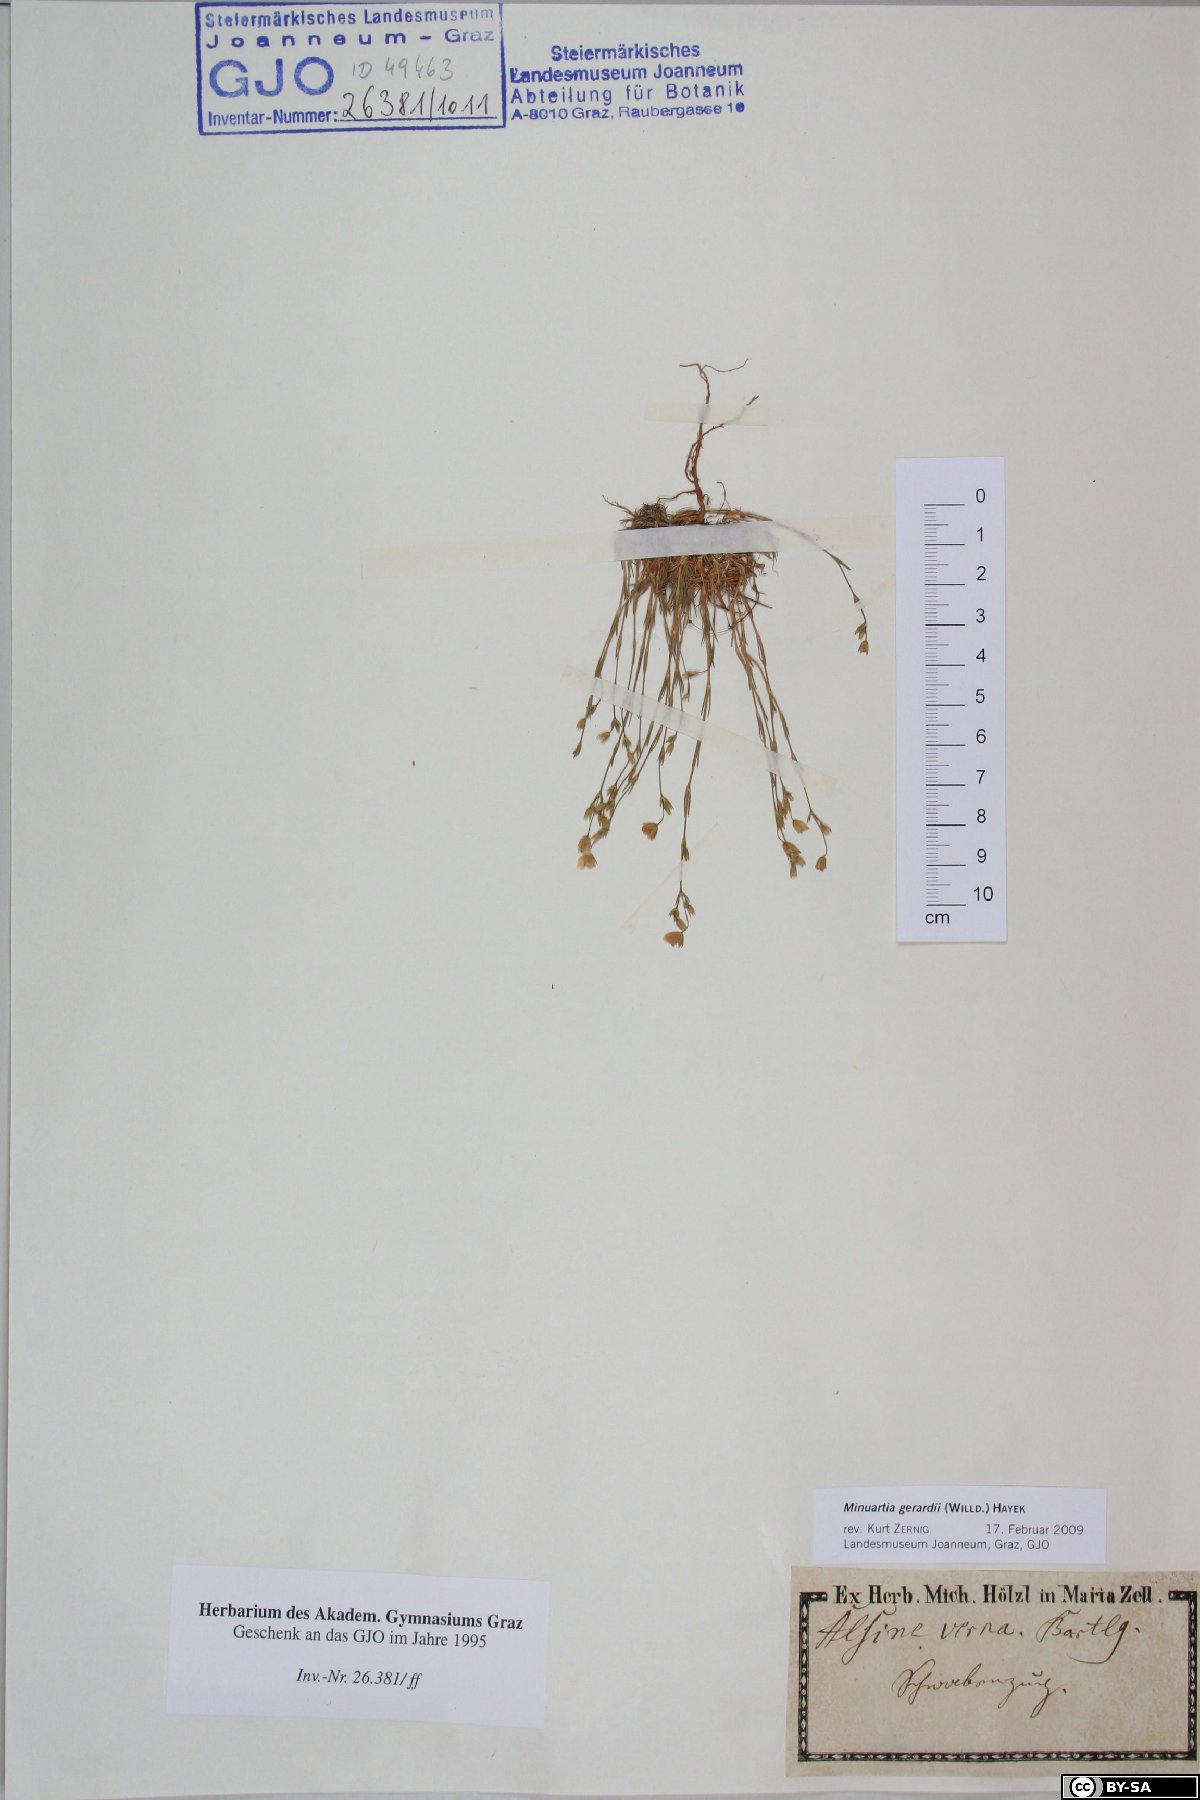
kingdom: Plantae
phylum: Tracheophyta
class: Magnoliopsida
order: Caryophyllales
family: Caryophyllaceae
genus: Sabulina
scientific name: Sabulina verna
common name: Spring sandwort
